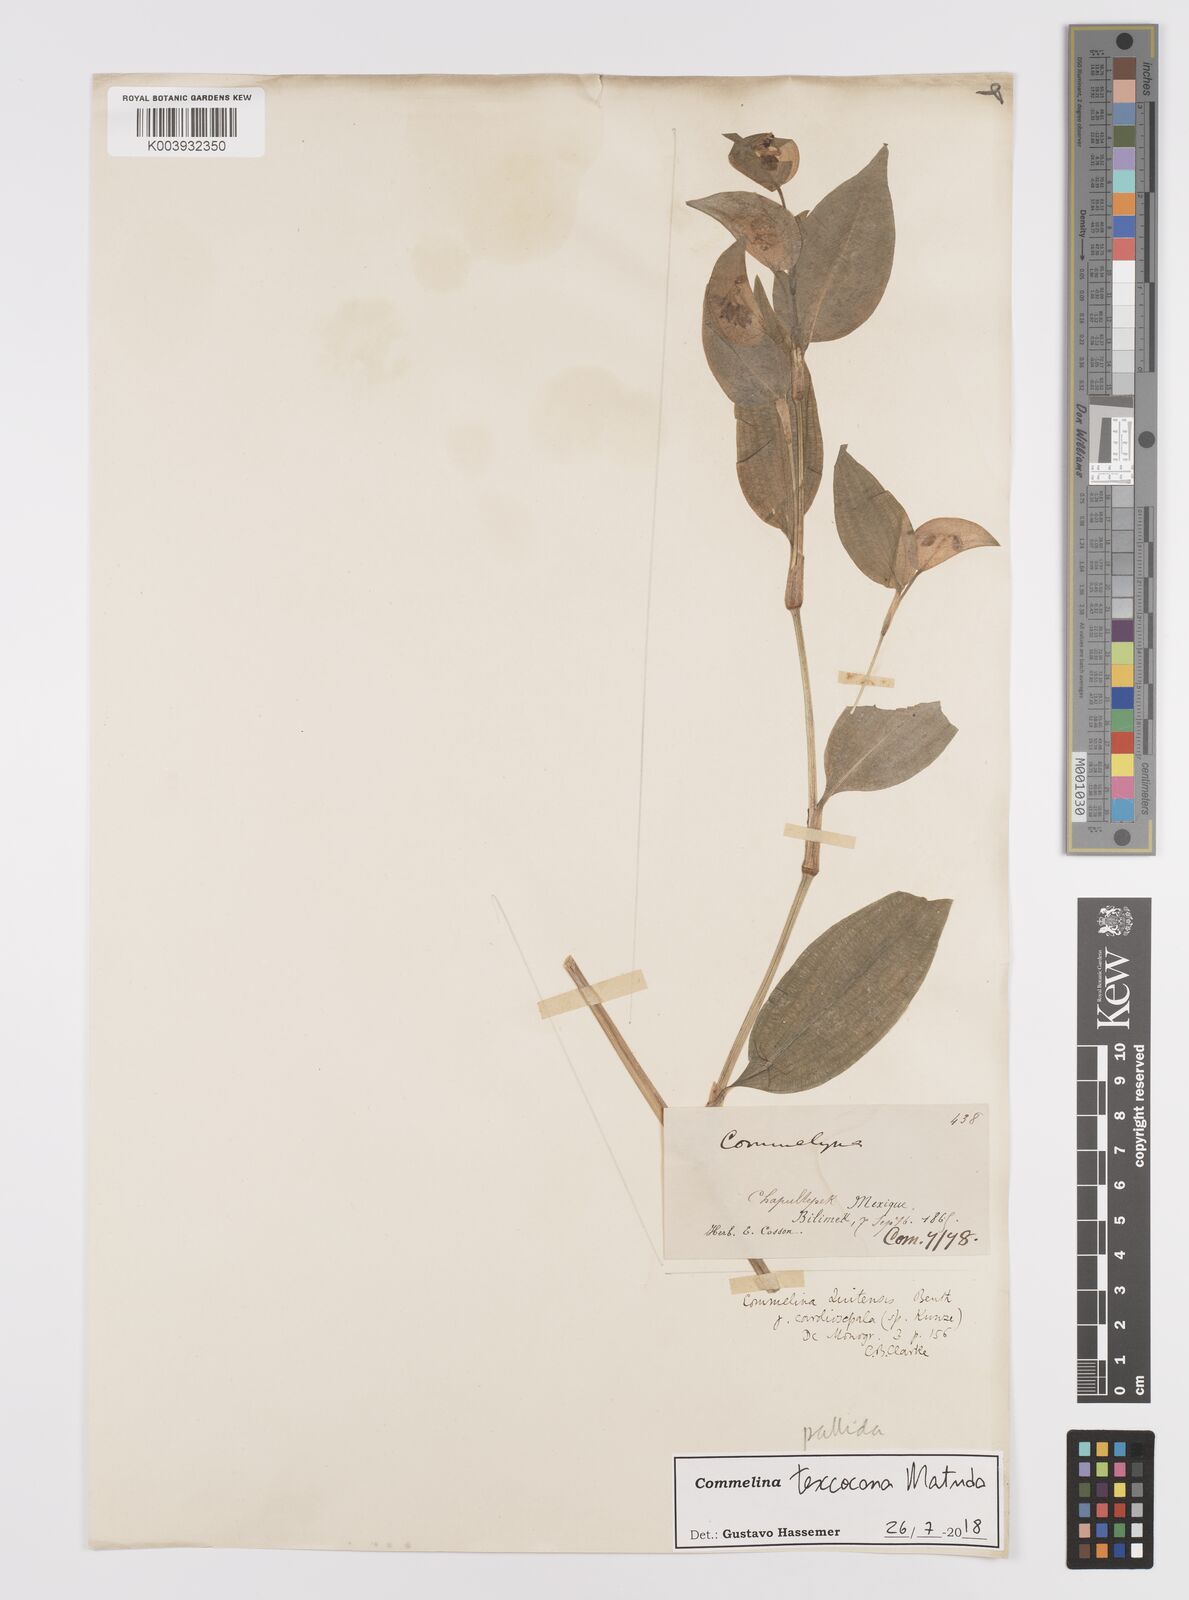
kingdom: Plantae
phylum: Tracheophyta
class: Liliopsida
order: Commelinales
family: Commelinaceae
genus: Commelina
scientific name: Commelina texcocana
